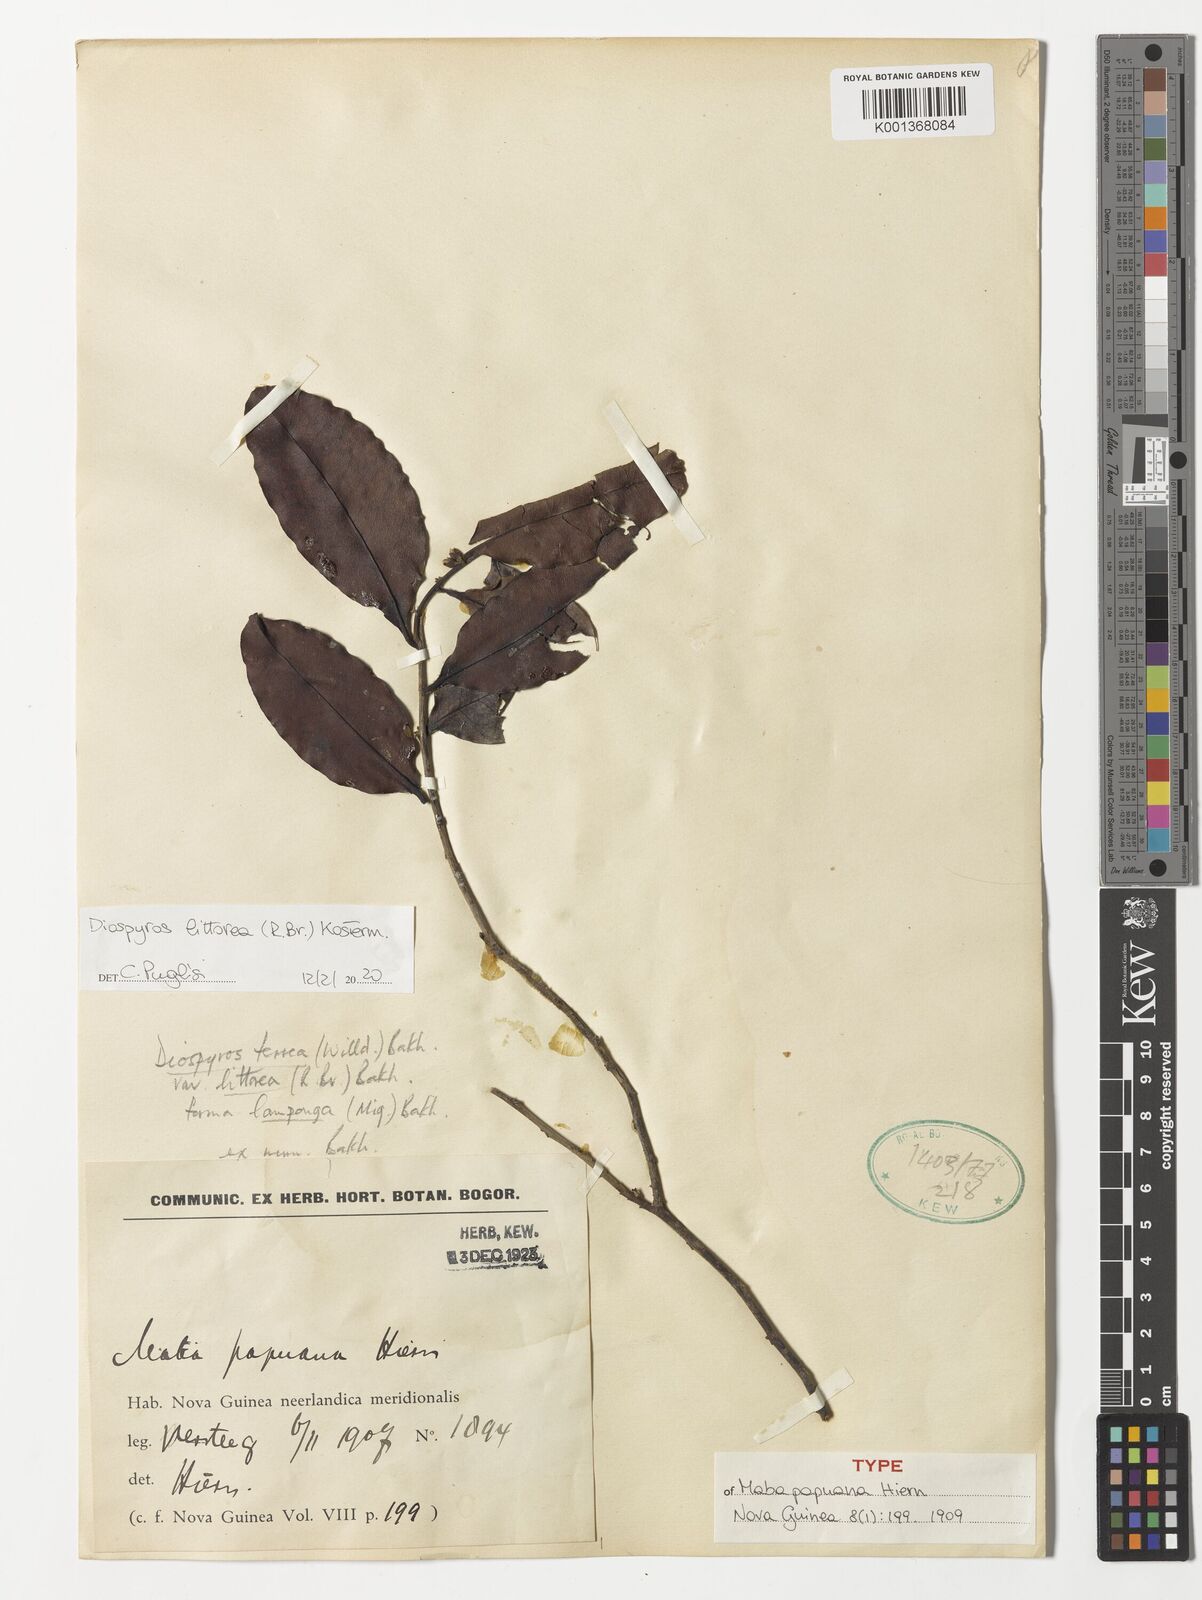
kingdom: Plantae
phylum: Tracheophyta
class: Magnoliopsida
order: Ericales
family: Ebenaceae
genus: Diospyros
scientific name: Diospyros littorea
